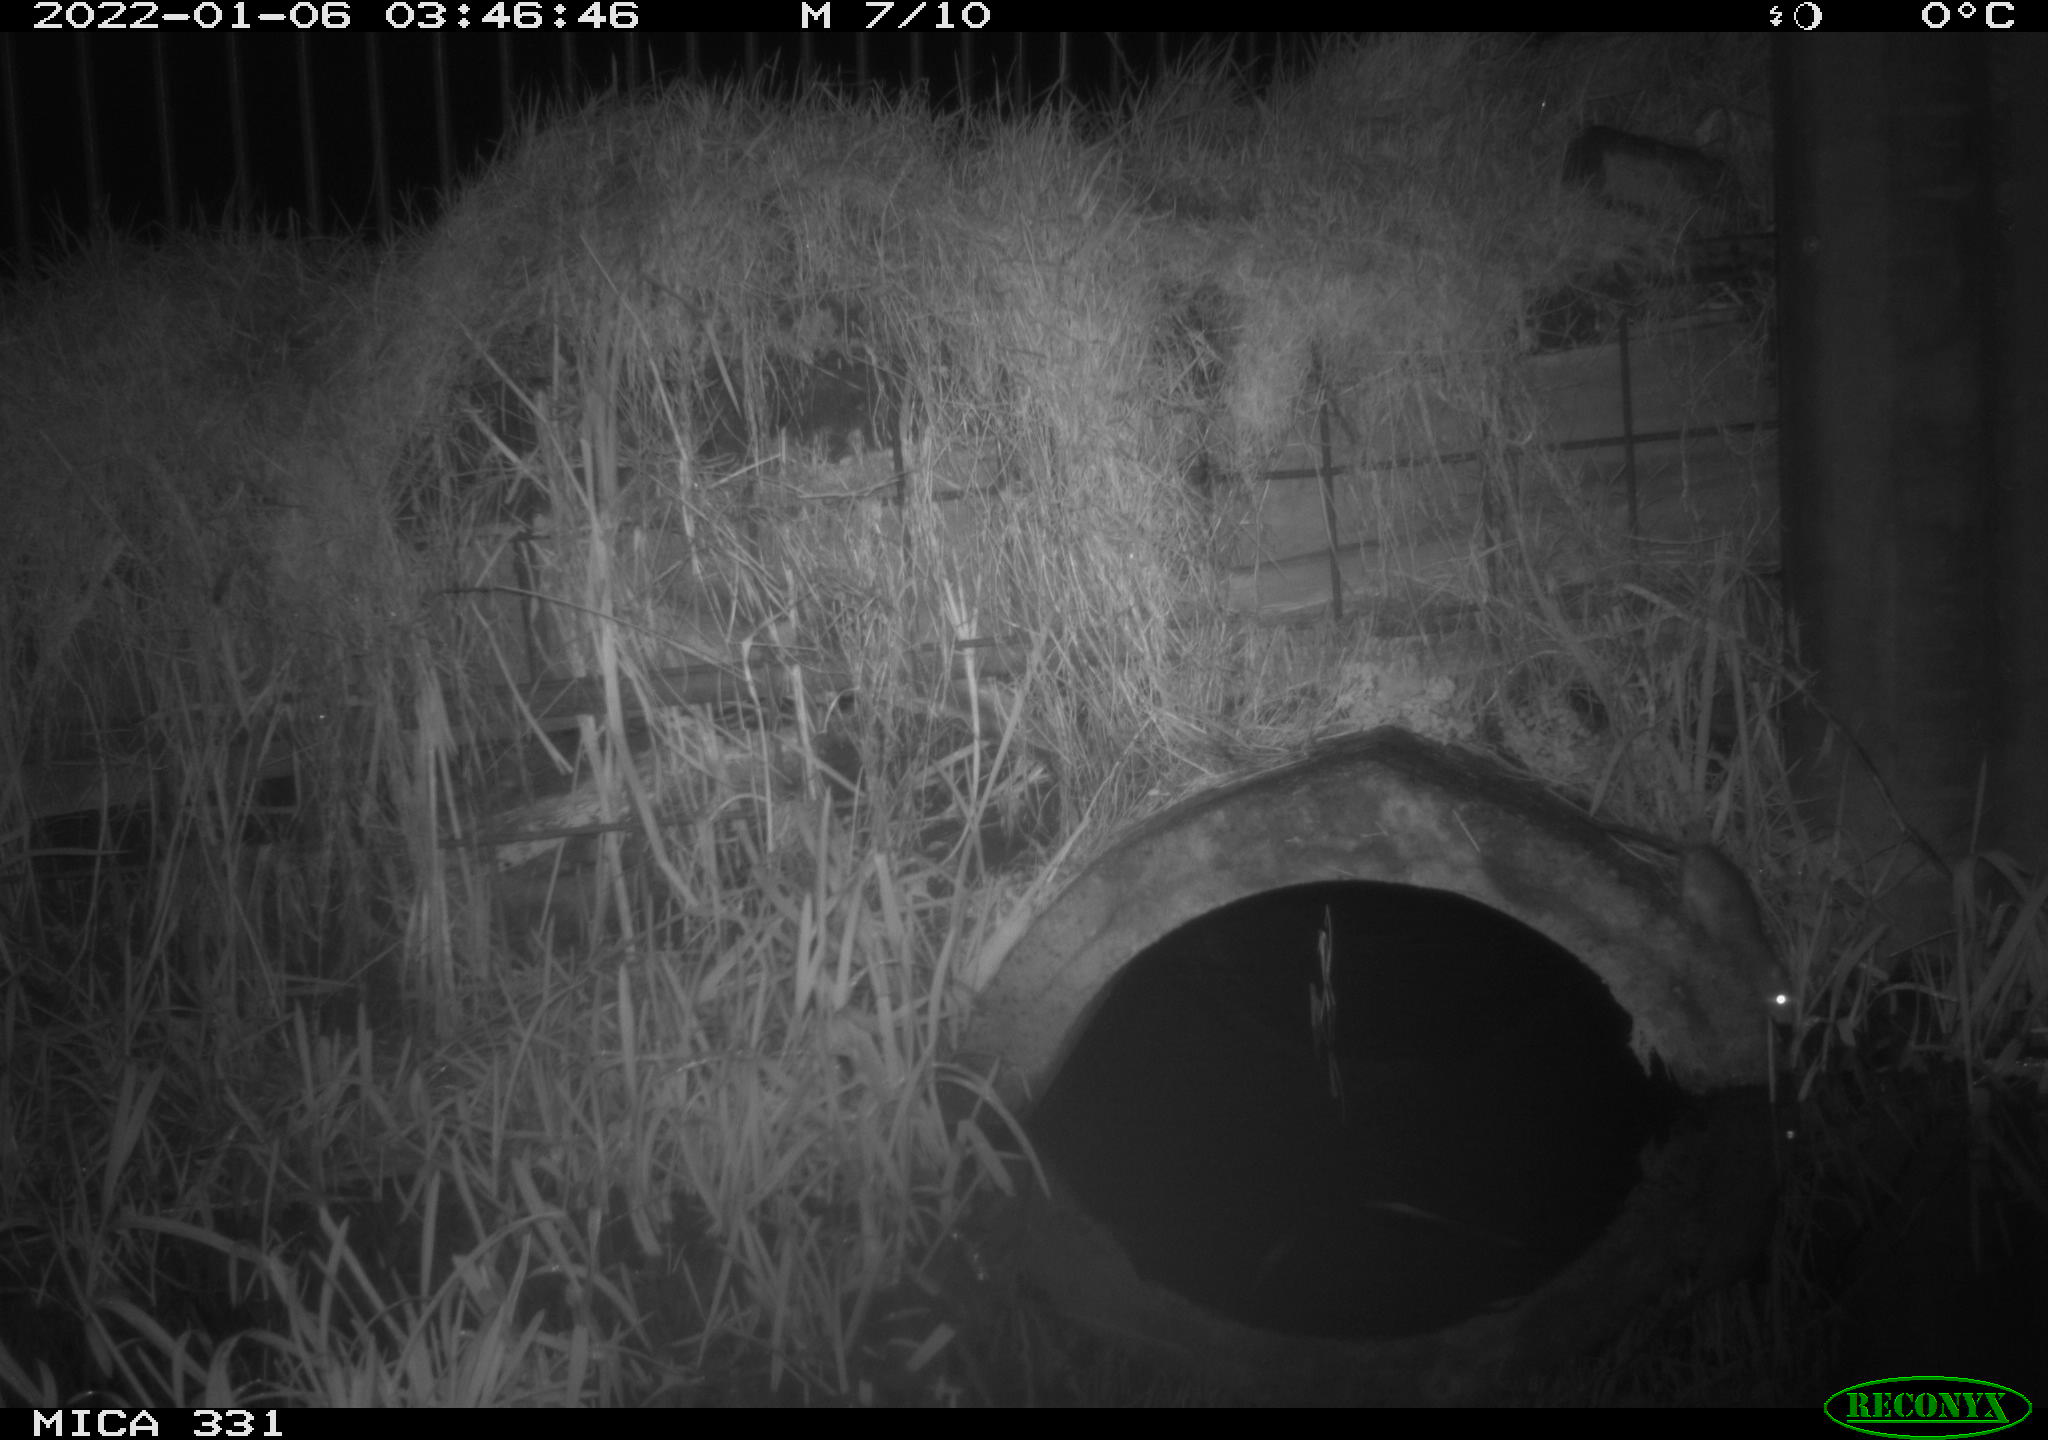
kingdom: Animalia
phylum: Chordata
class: Mammalia
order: Rodentia
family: Muridae
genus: Rattus
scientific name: Rattus norvegicus
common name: Brown rat
